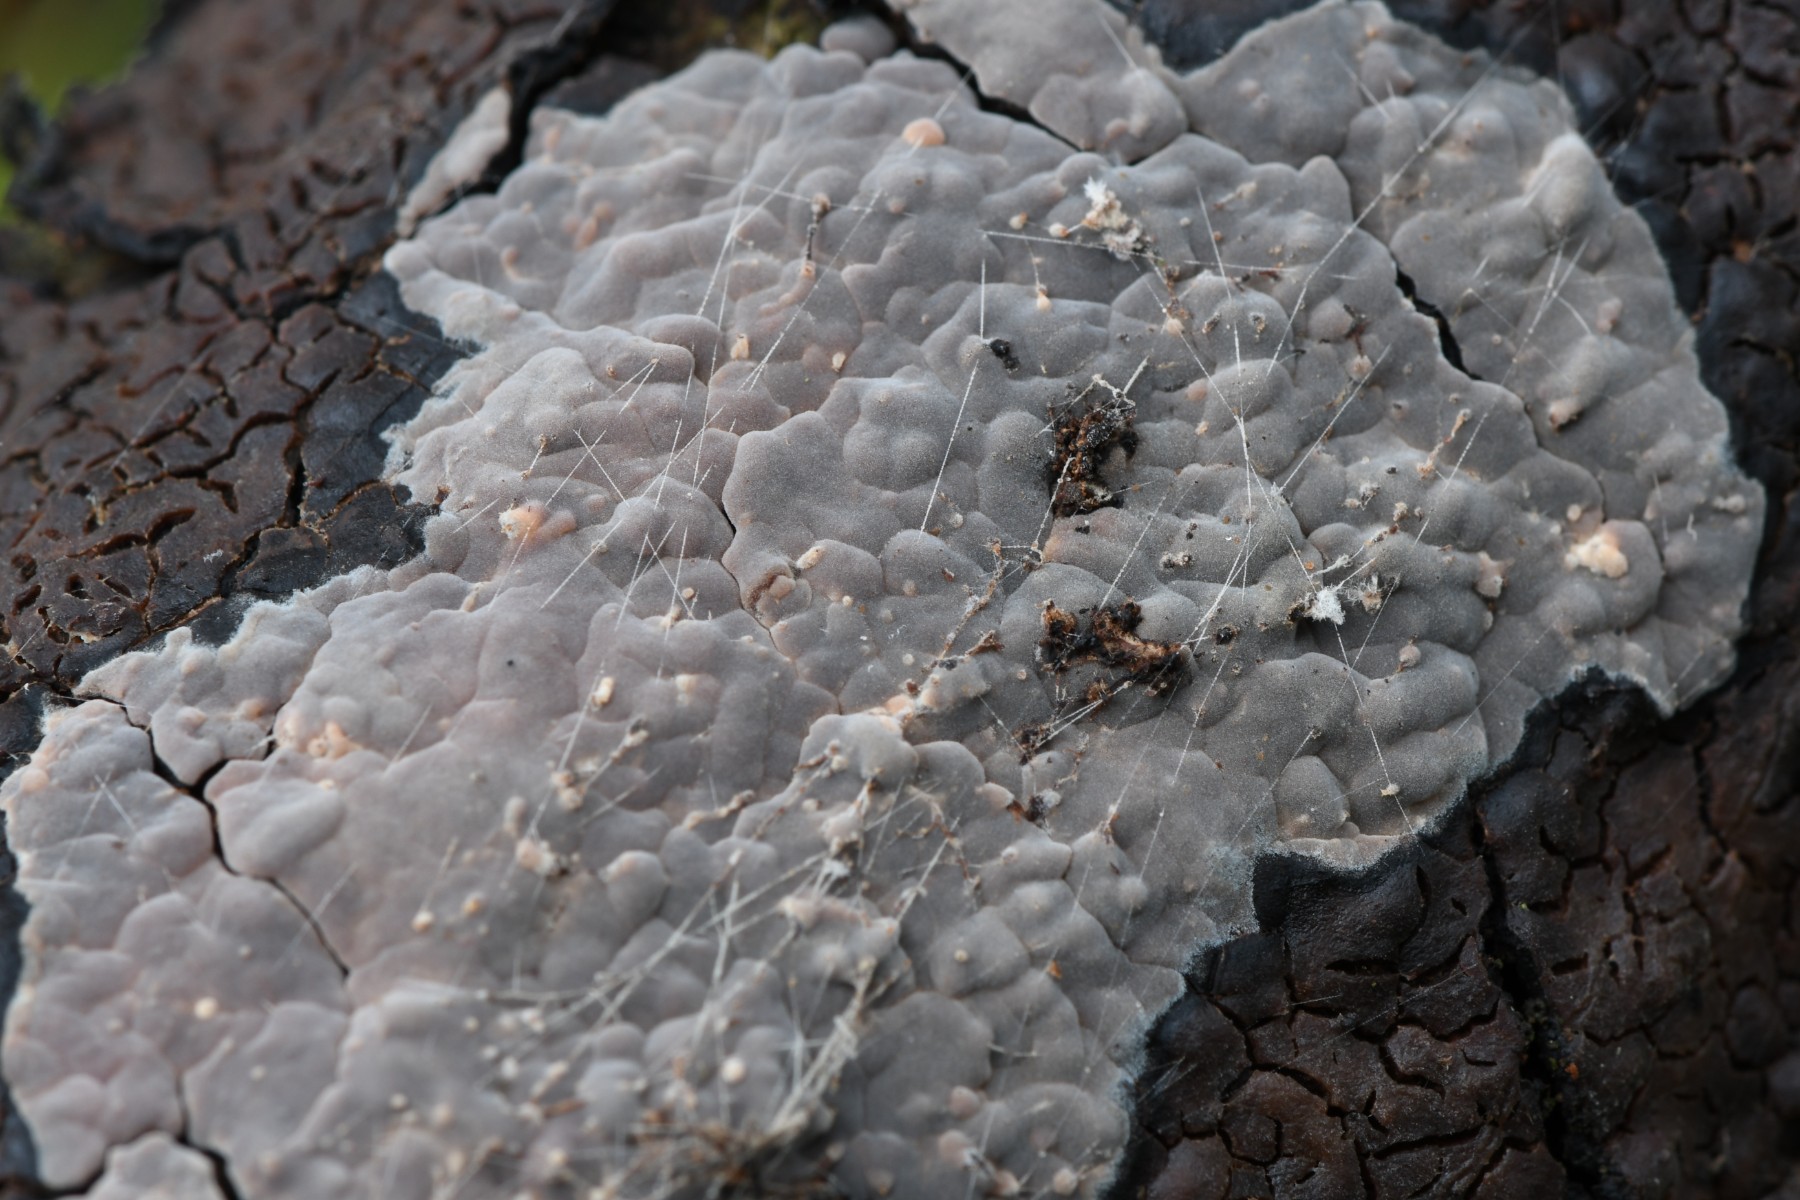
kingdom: Fungi
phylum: Basidiomycota
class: Agaricomycetes
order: Russulales
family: Peniophoraceae
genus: Peniophora
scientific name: Peniophora quercina
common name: ege-voksskind
